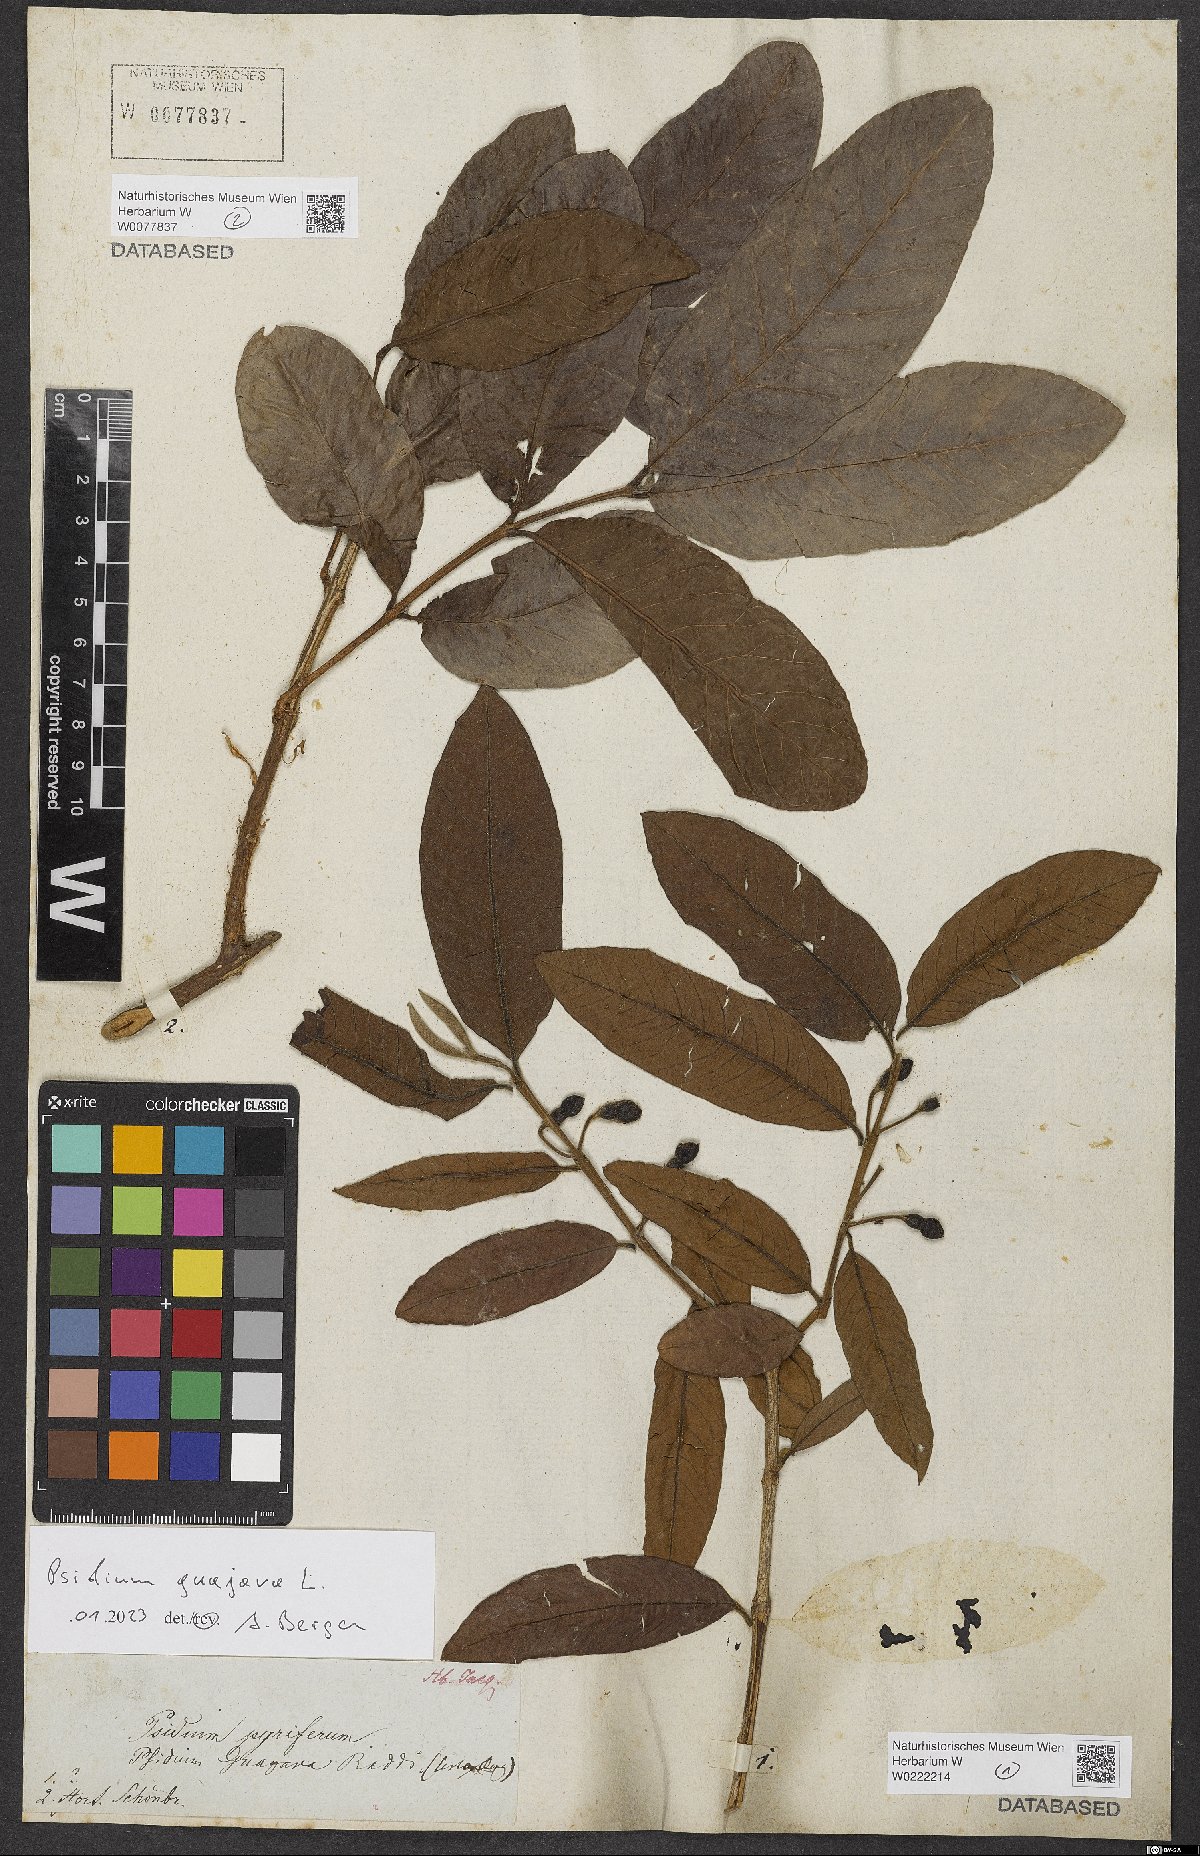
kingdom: Plantae
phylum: Tracheophyta
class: Magnoliopsida
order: Myrtales
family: Myrtaceae
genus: Psidium
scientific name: Psidium guajava
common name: Guava
